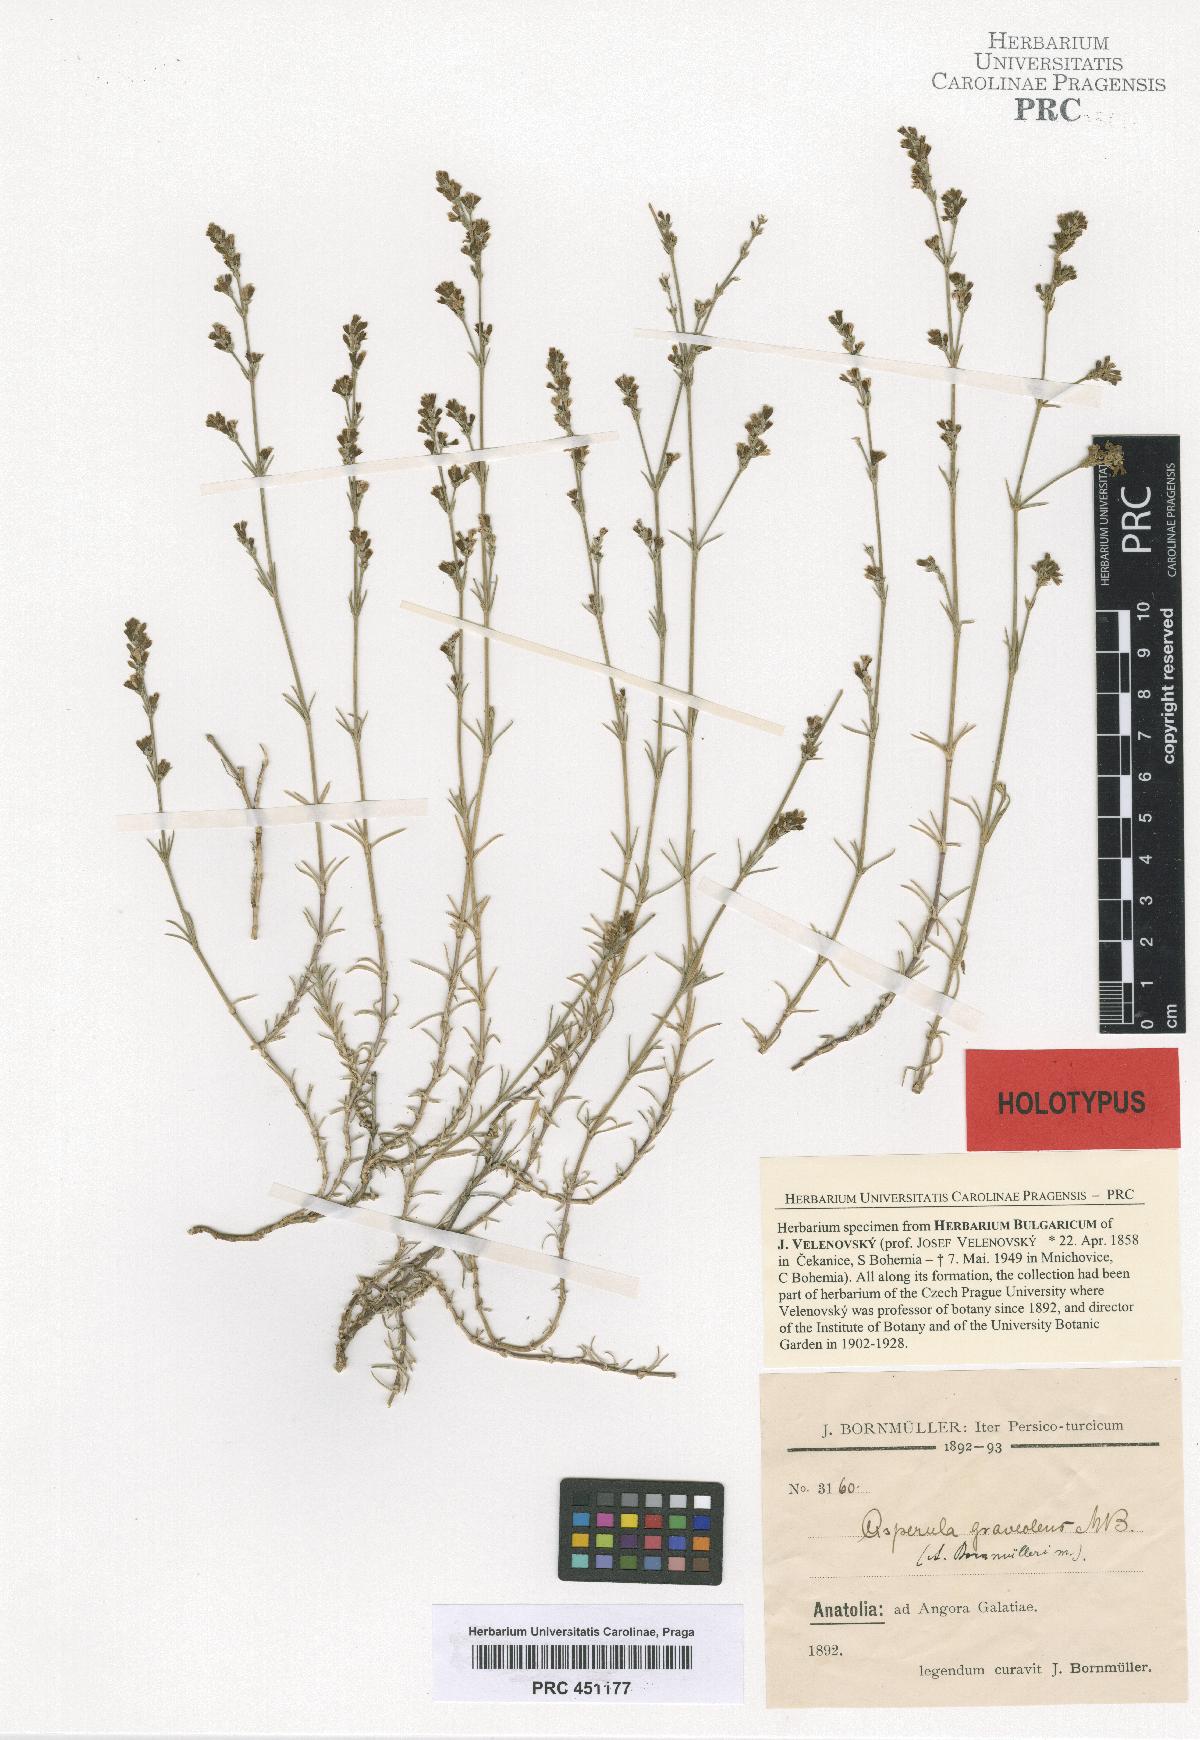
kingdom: Plantae
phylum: Tracheophyta
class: Magnoliopsida
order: Gentianales
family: Rubiaceae
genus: Cynanchica
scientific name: Cynanchica bornmuelleri
